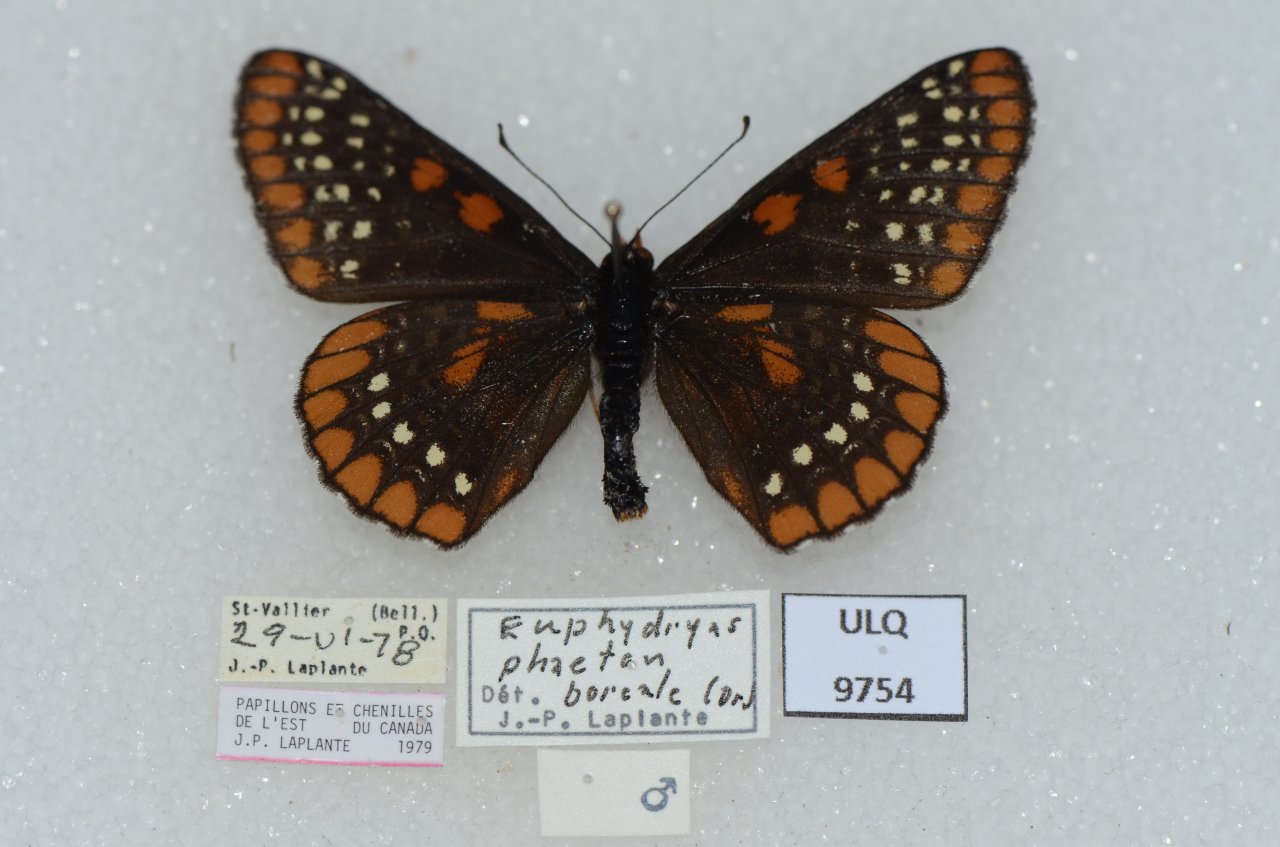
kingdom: Animalia
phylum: Arthropoda
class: Insecta
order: Lepidoptera
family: Nymphalidae
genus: Euphydryas
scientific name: Euphydryas phaeton
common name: Baltimore Checkerspot
